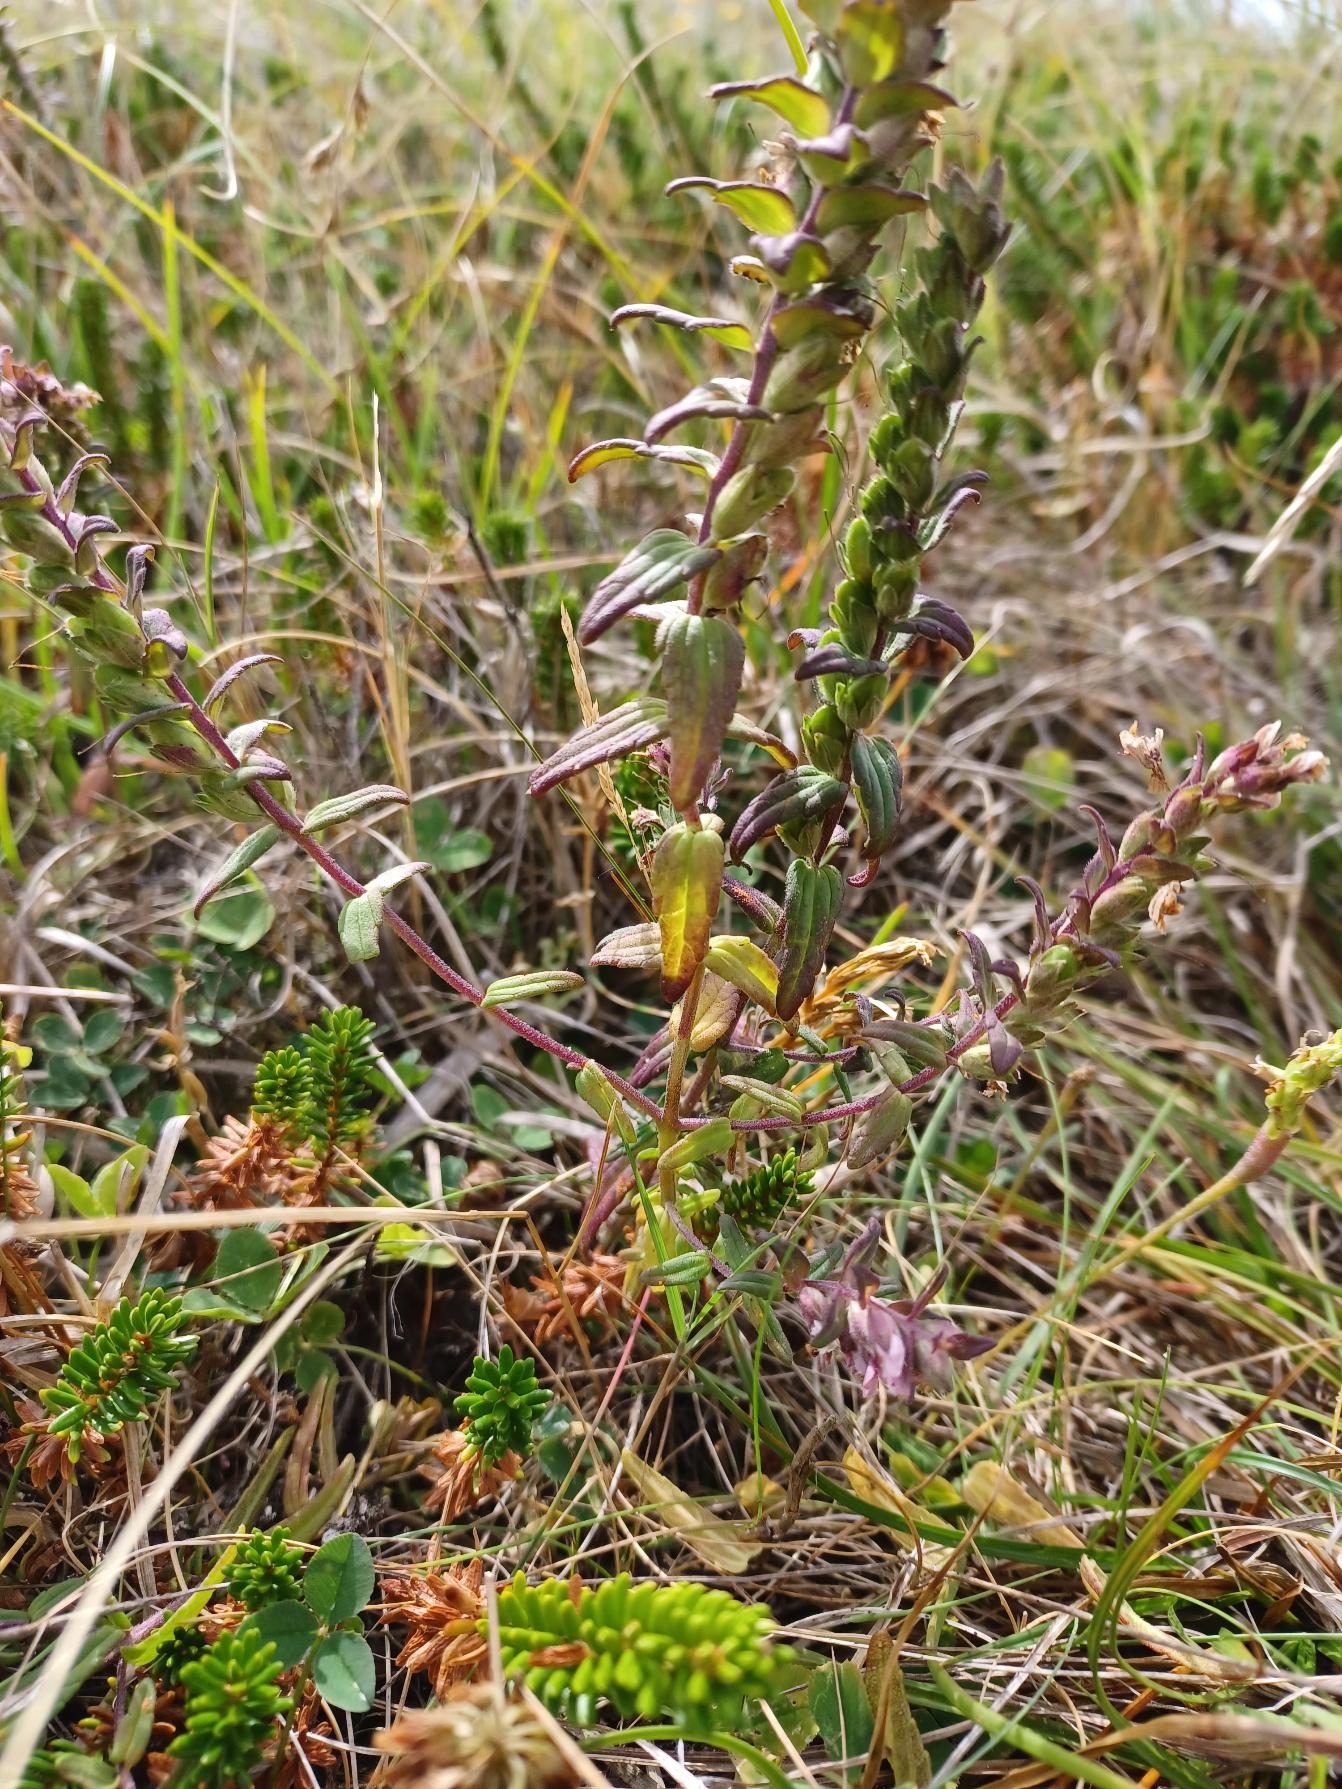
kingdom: Plantae
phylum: Tracheophyta
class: Magnoliopsida
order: Lamiales
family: Orobanchaceae
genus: Odontites
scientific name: Odontites vulgaris
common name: Høst-rødtop
